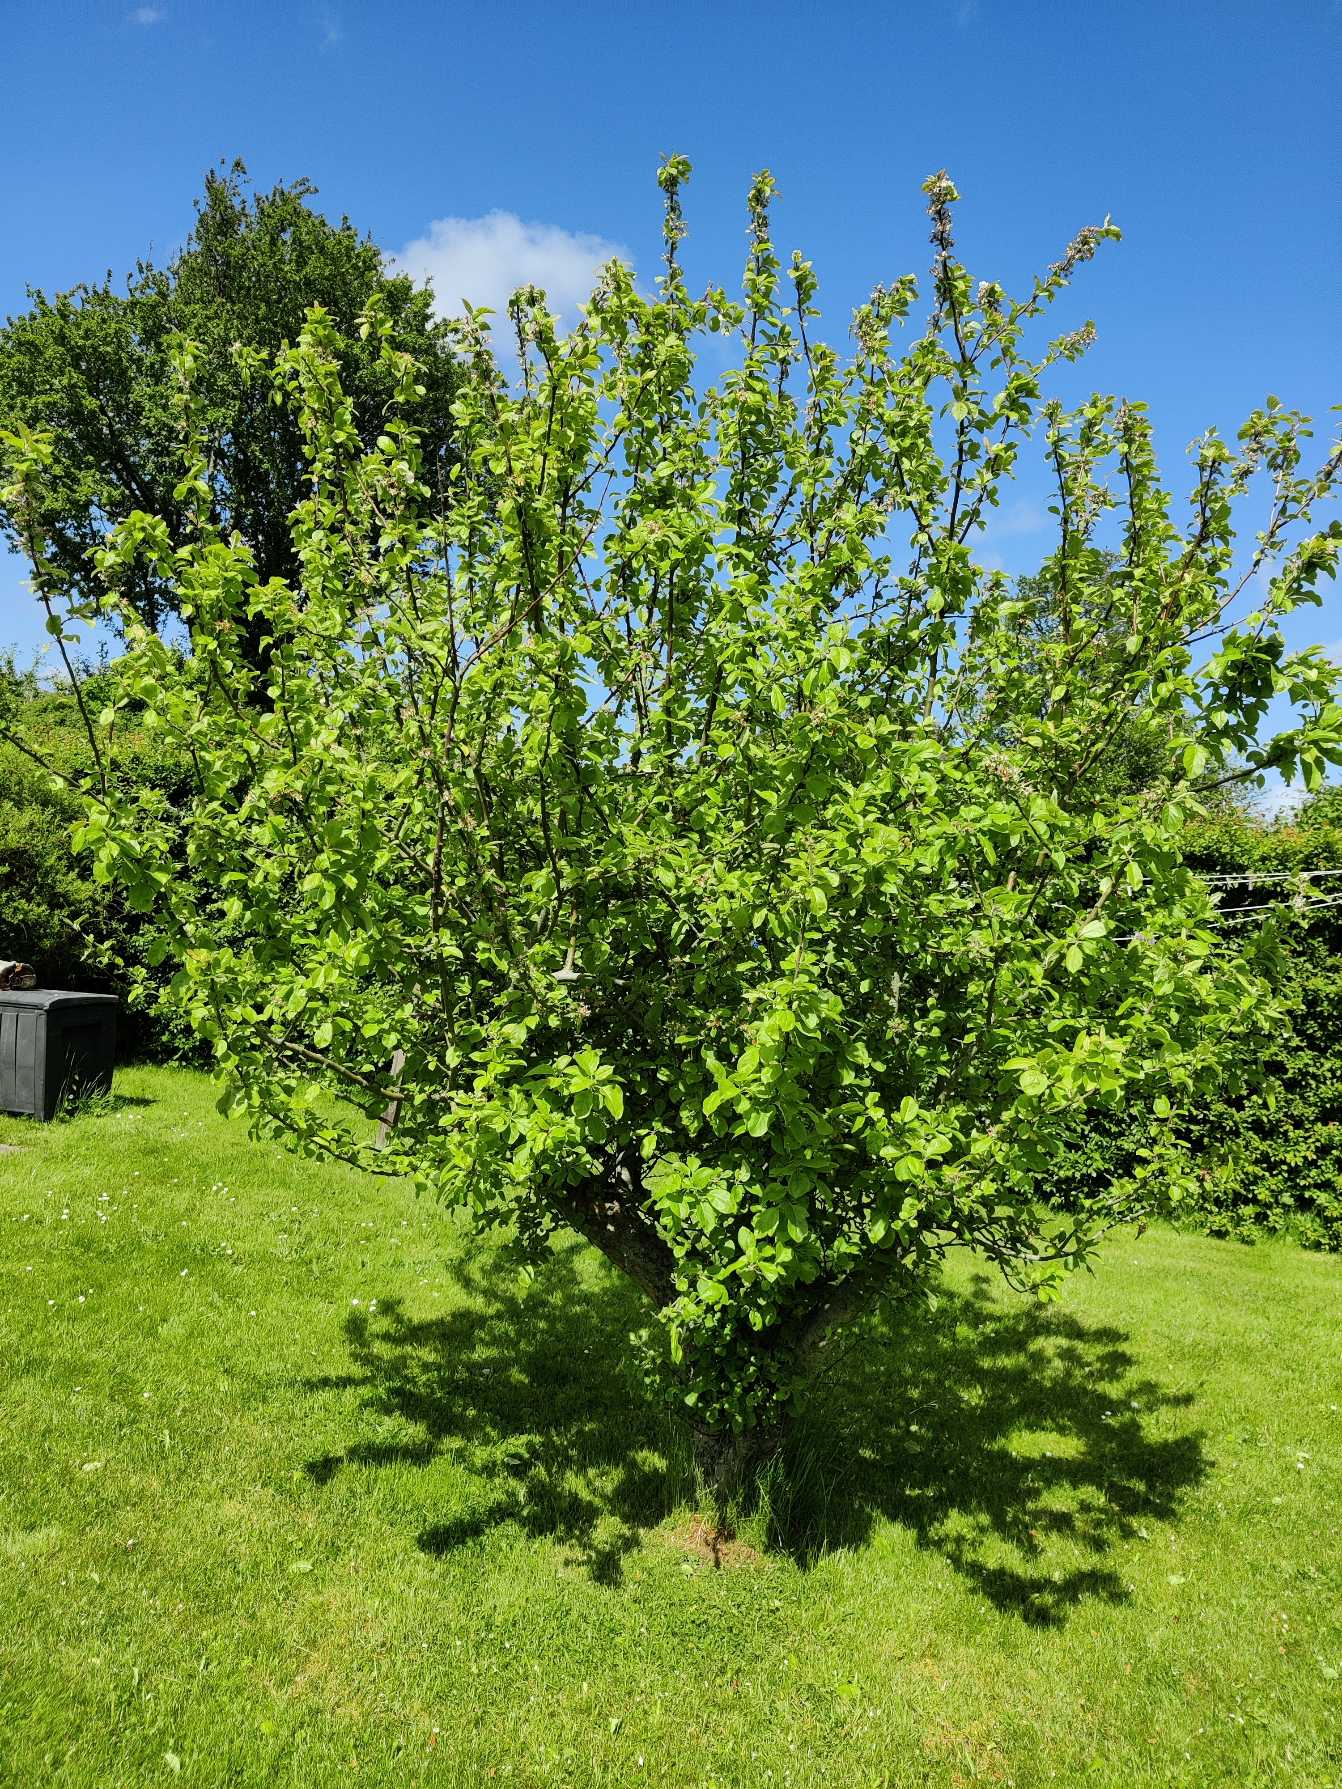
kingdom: Plantae
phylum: Tracheophyta
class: Magnoliopsida
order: Rosales
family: Rosaceae
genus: Malus
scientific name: Malus domestica
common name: Sød-æble
